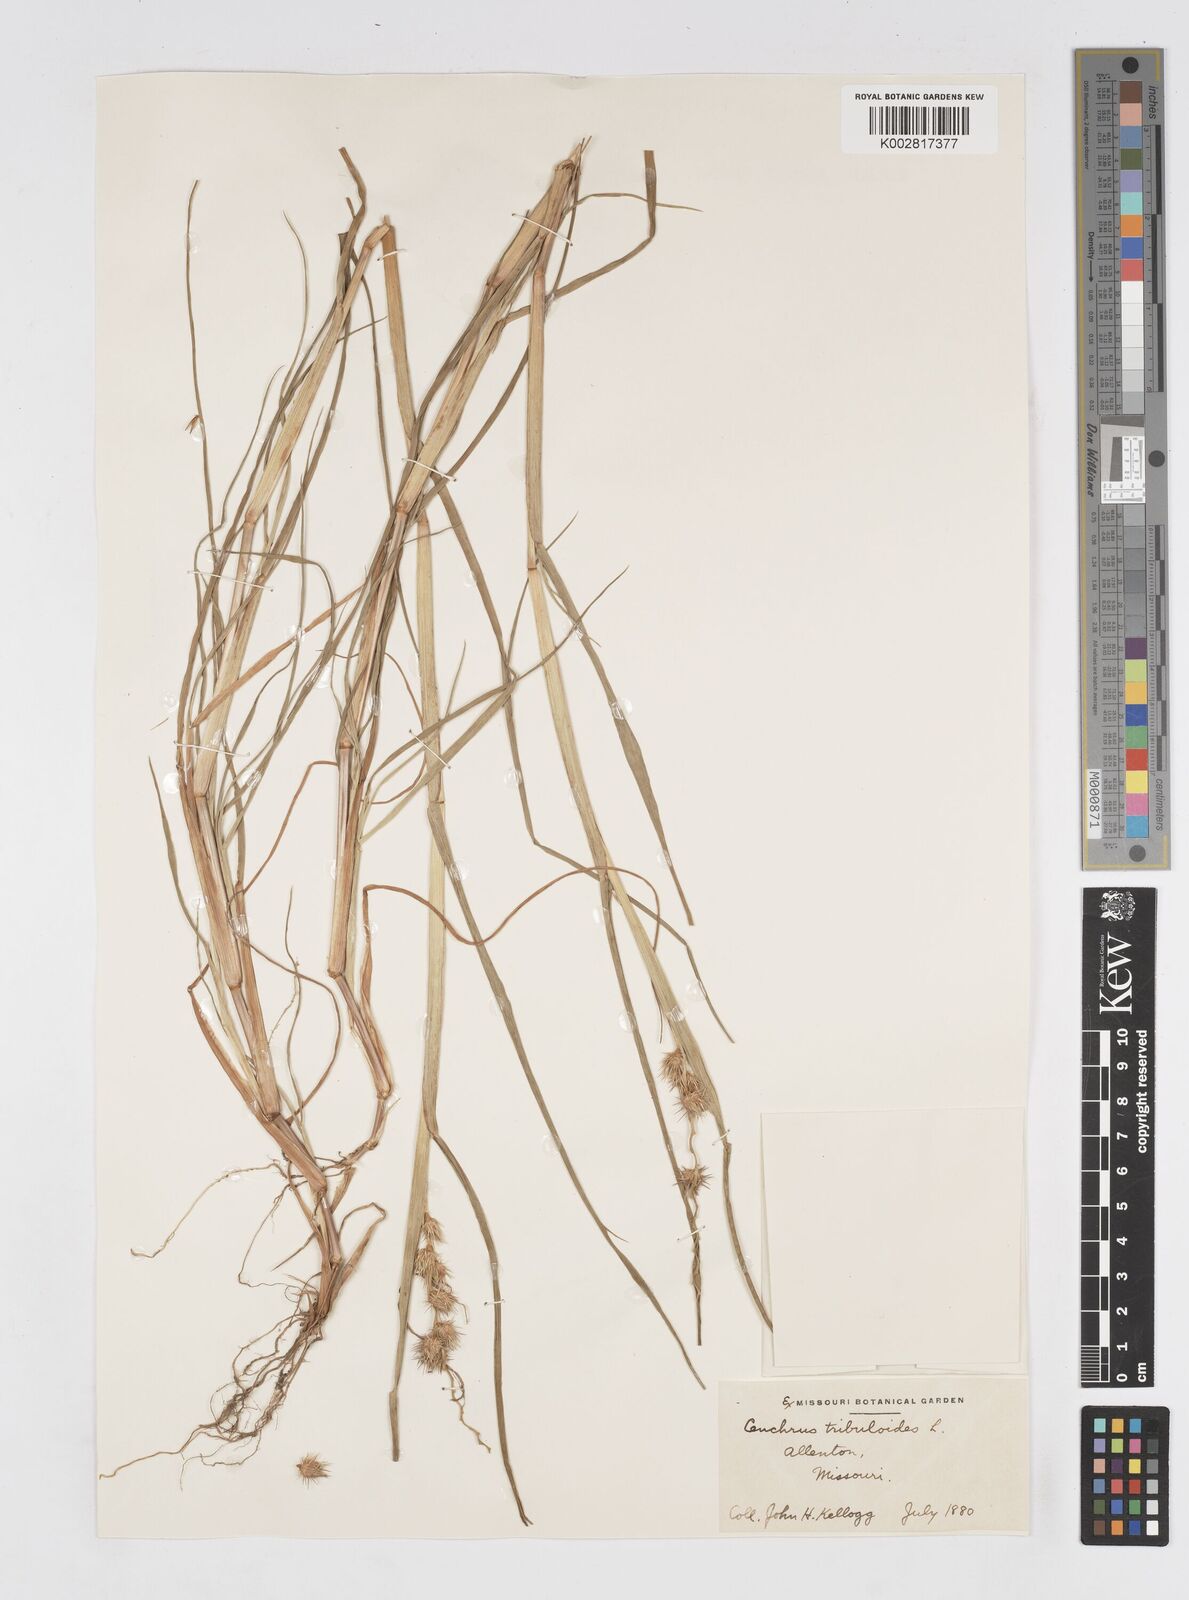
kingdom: Plantae
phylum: Tracheophyta
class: Liliopsida
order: Poales
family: Poaceae
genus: Cenchrus
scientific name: Cenchrus longispinus
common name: Mat sandbur
